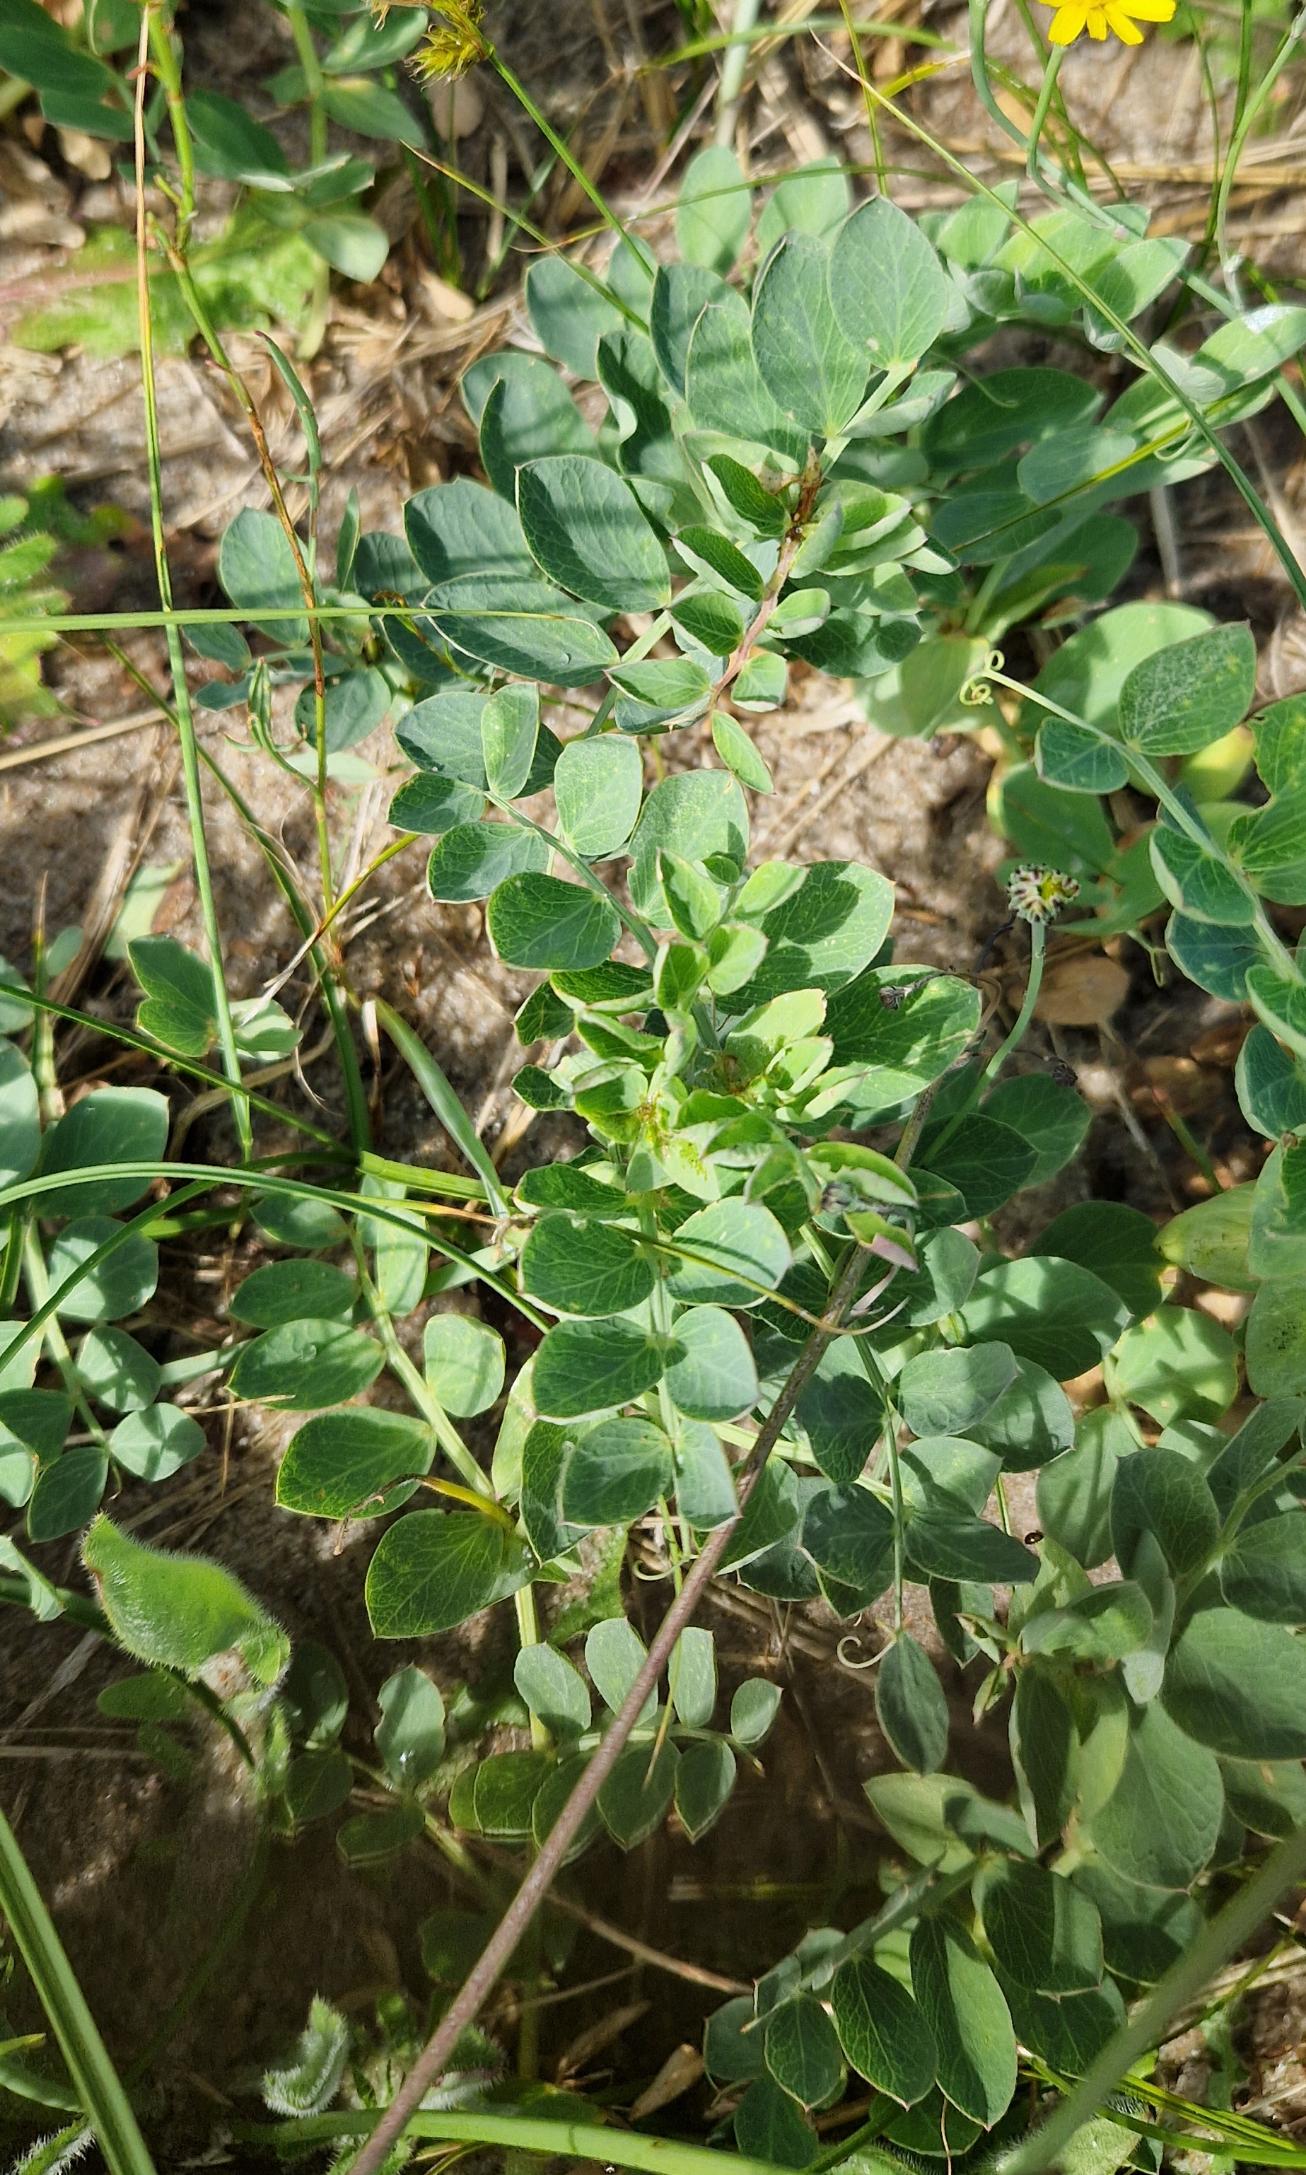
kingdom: Plantae
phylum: Tracheophyta
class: Magnoliopsida
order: Fabales
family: Fabaceae
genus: Lathyrus
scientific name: Lathyrus japonicus
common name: Strand-fladbælg
